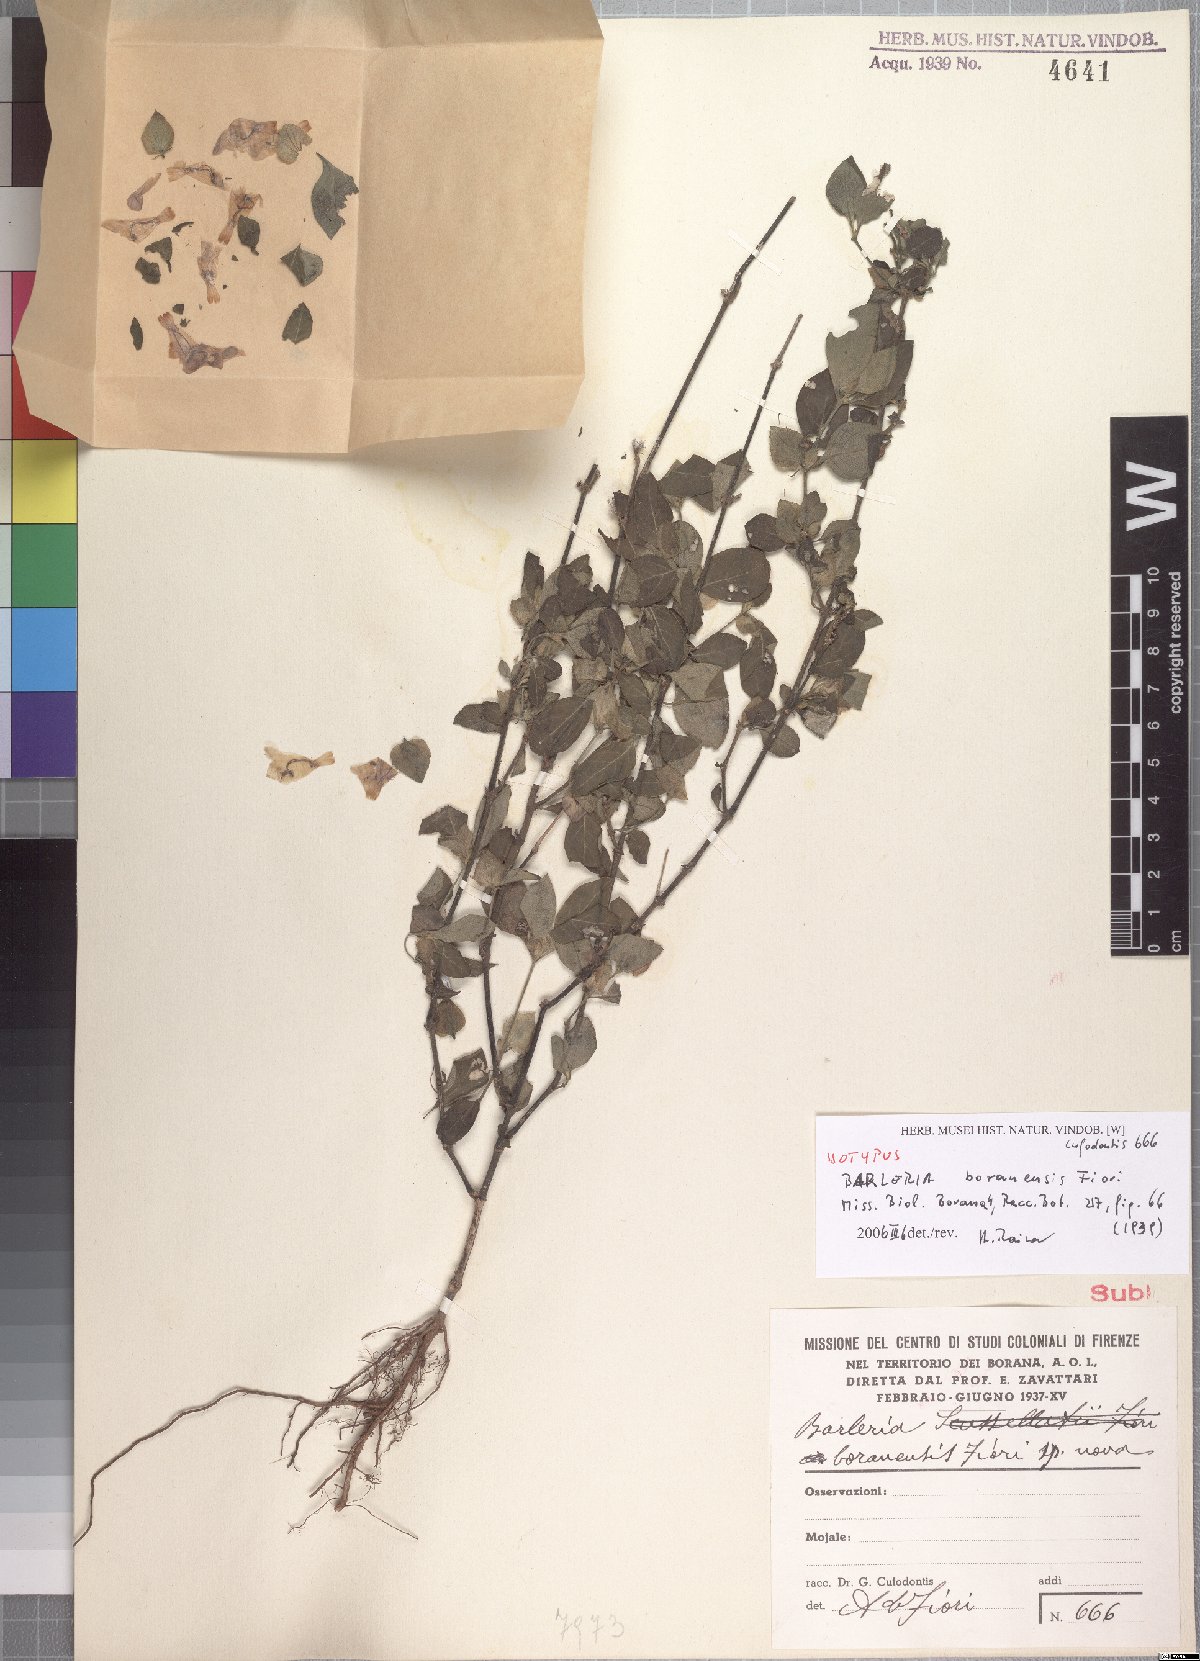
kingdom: Plantae
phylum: Tracheophyta
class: Magnoliopsida
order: Lamiales
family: Acanthaceae
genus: Barleria
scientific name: Barleria boranensis
